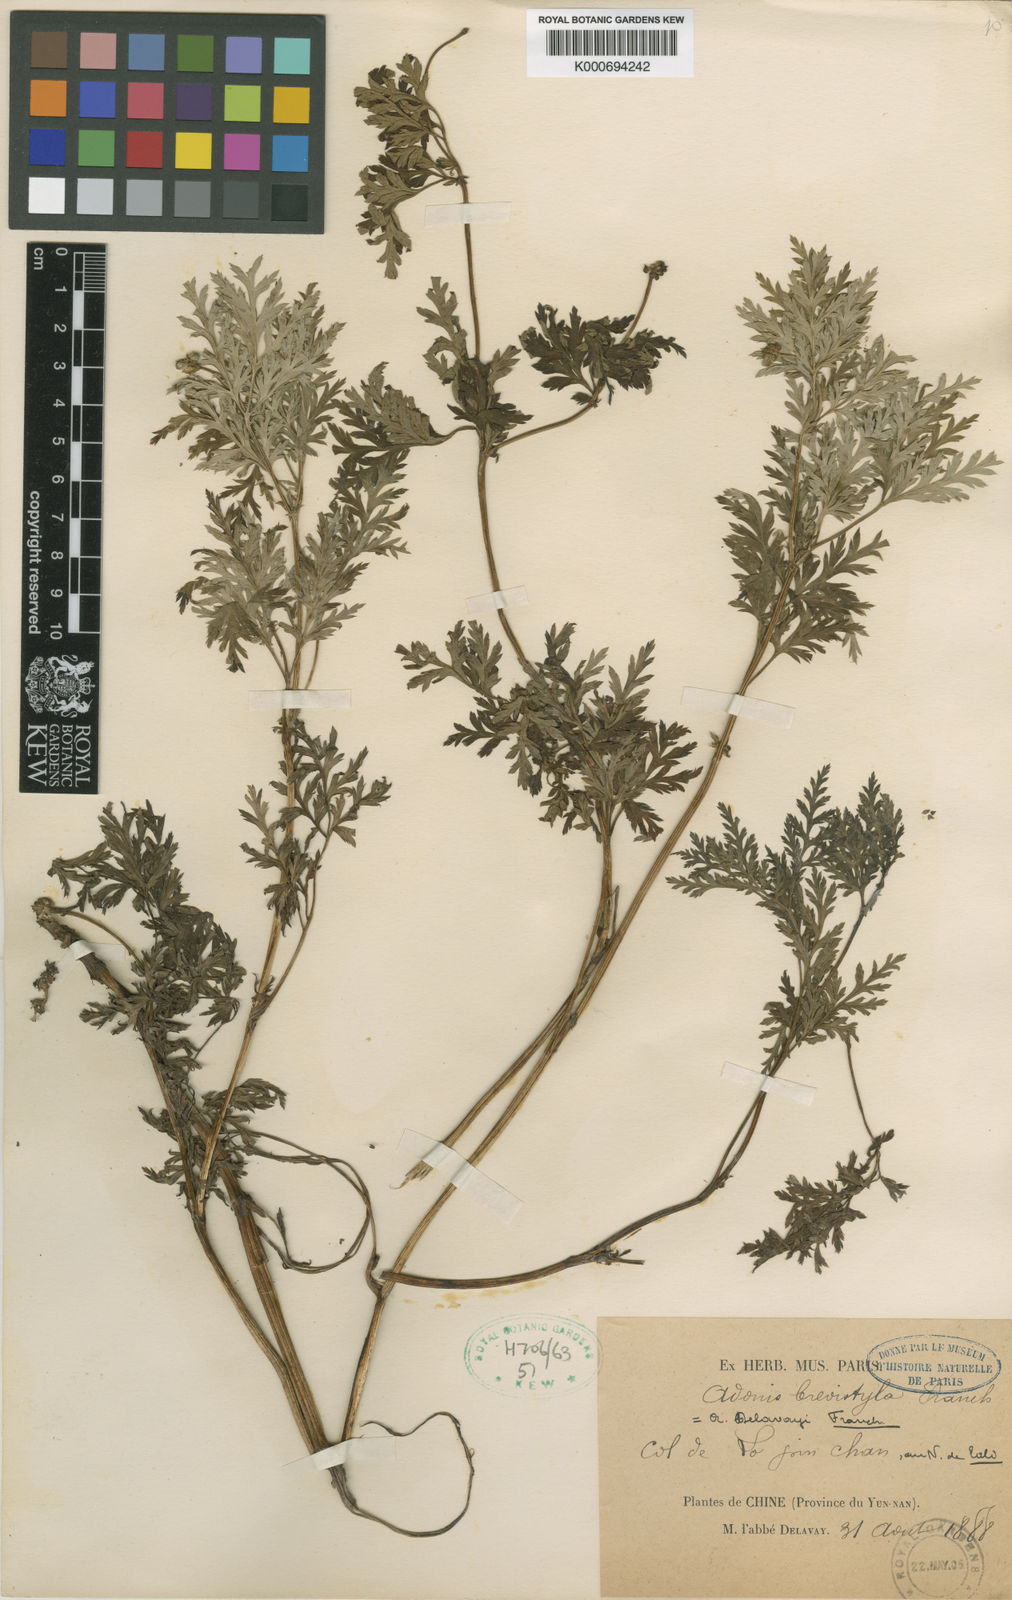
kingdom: Plantae
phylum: Tracheophyta
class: Magnoliopsida
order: Ranunculales
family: Ranunculaceae
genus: Adonis
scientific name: Adonis davidii
